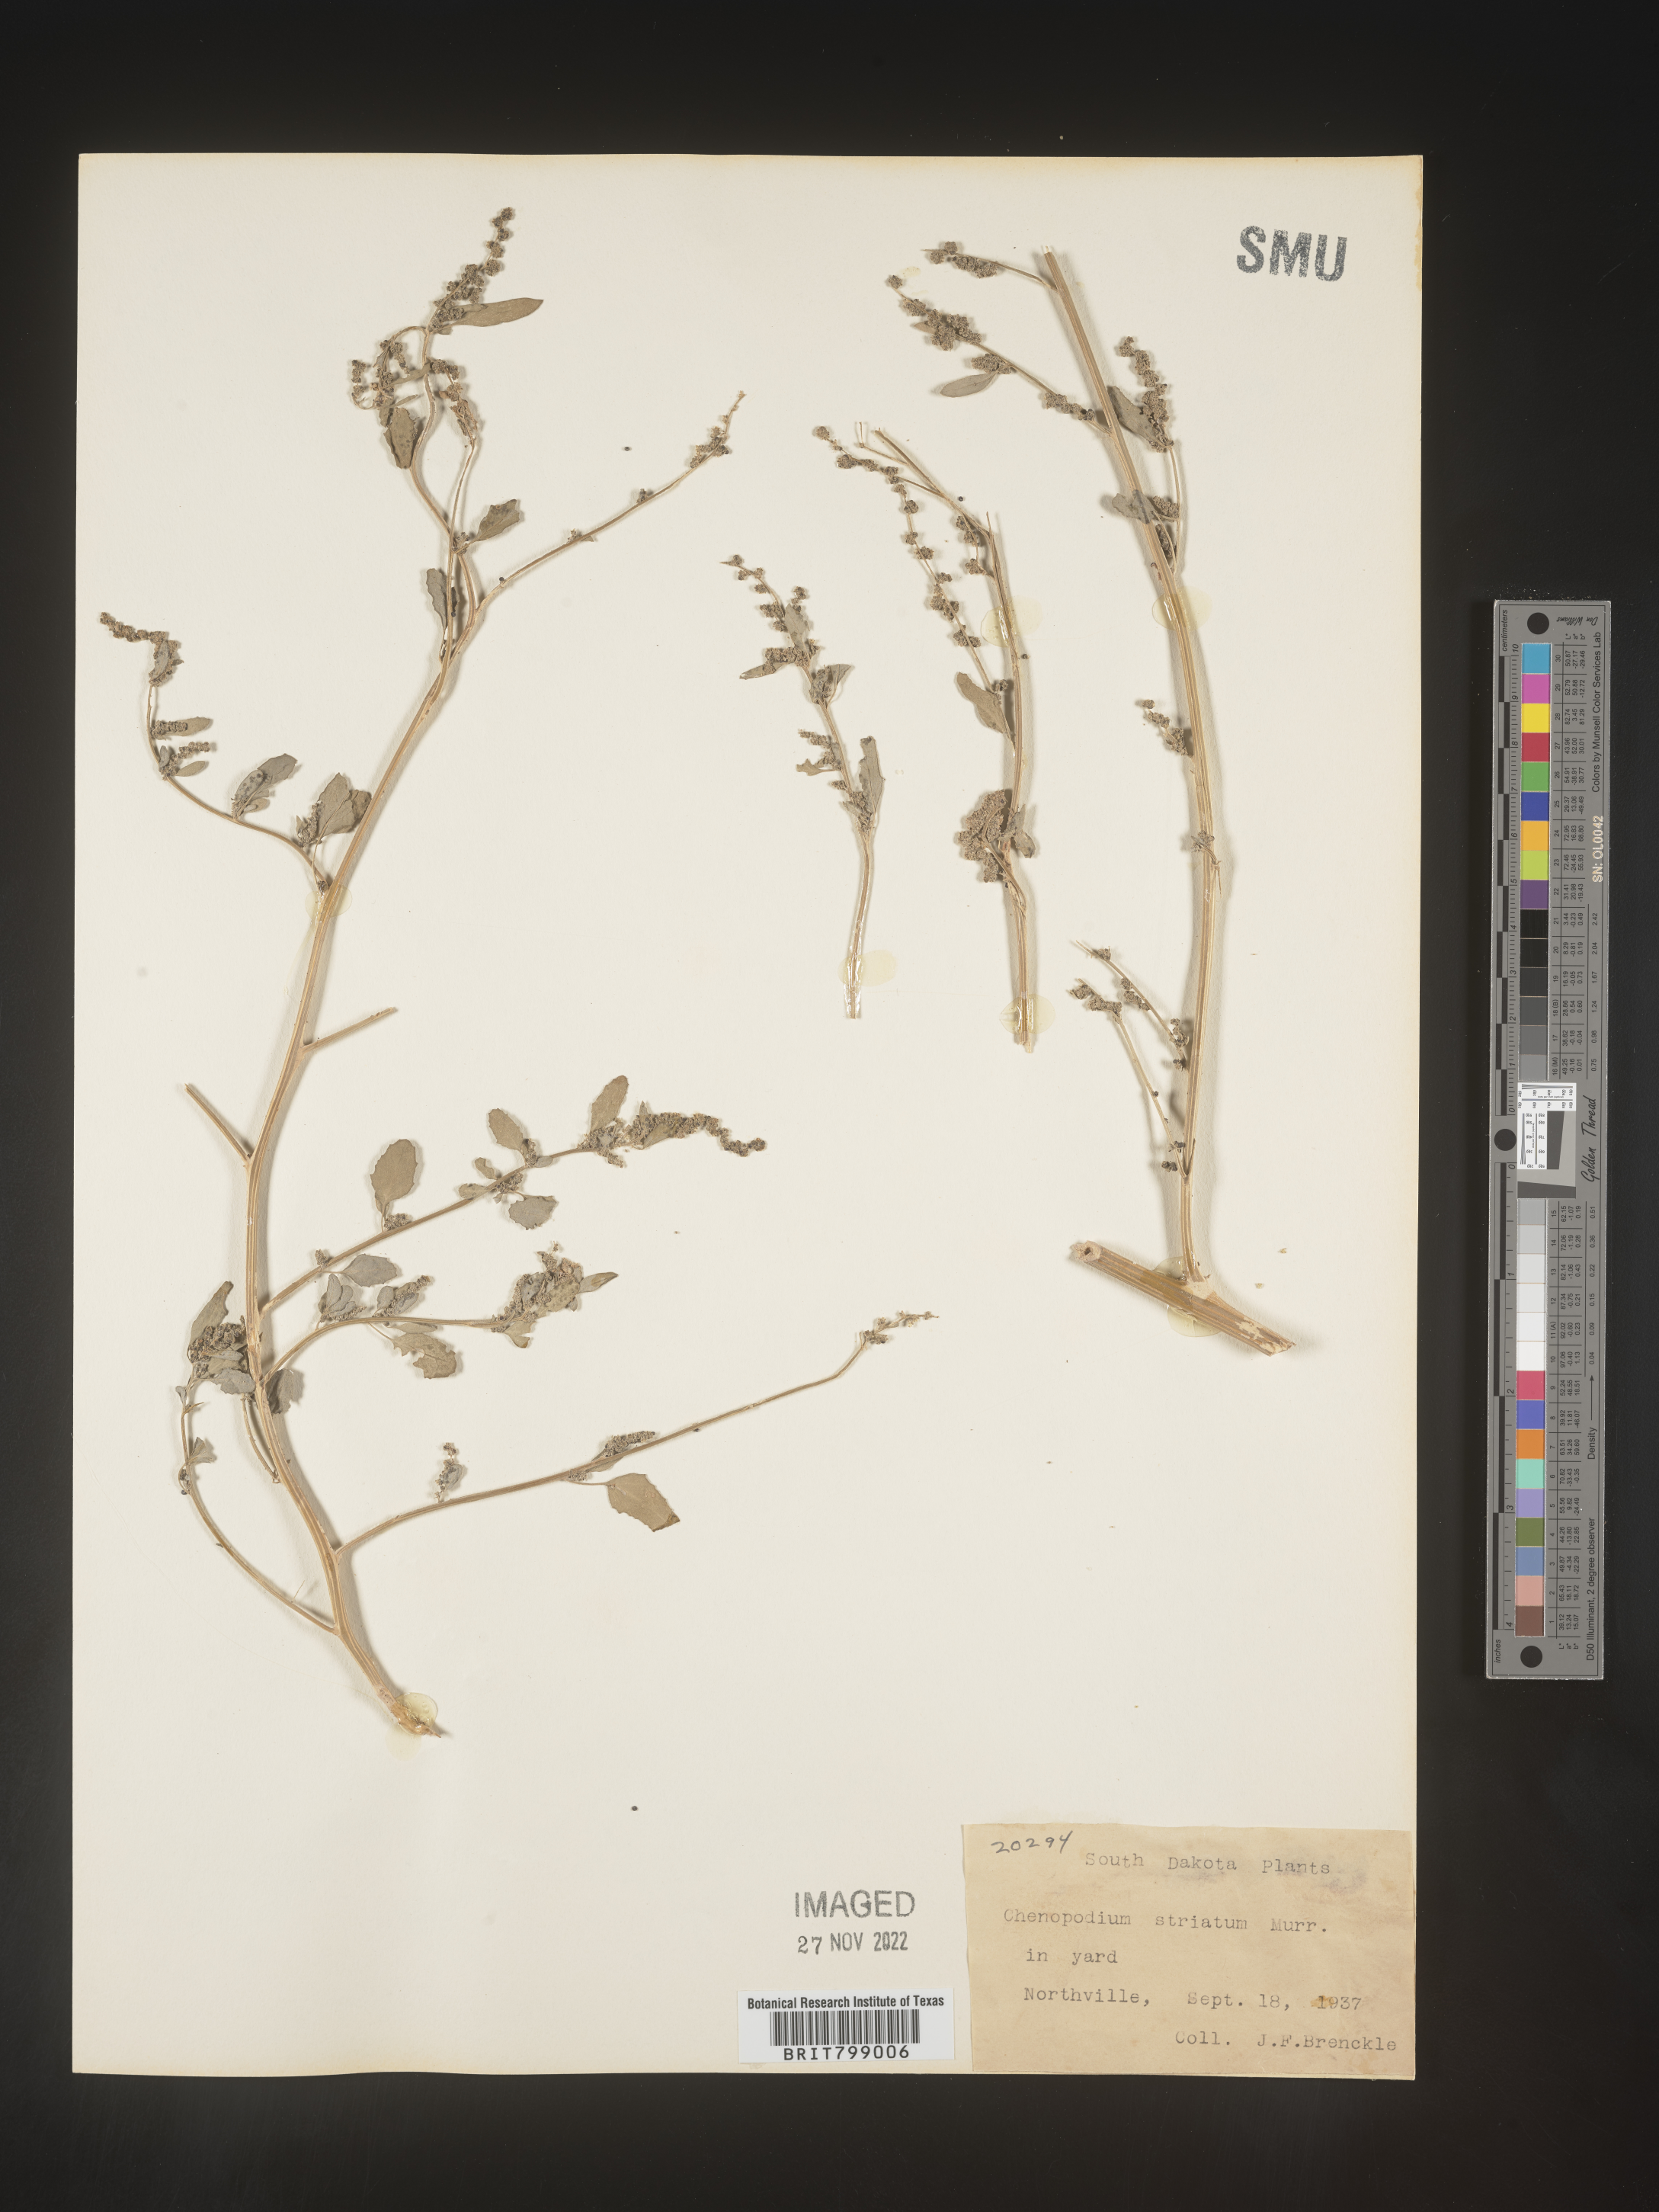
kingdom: Plantae
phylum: Tracheophyta
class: Magnoliopsida
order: Caryophyllales
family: Amaranthaceae
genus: Chenopodium
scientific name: Chenopodium album
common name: Fat-hen
